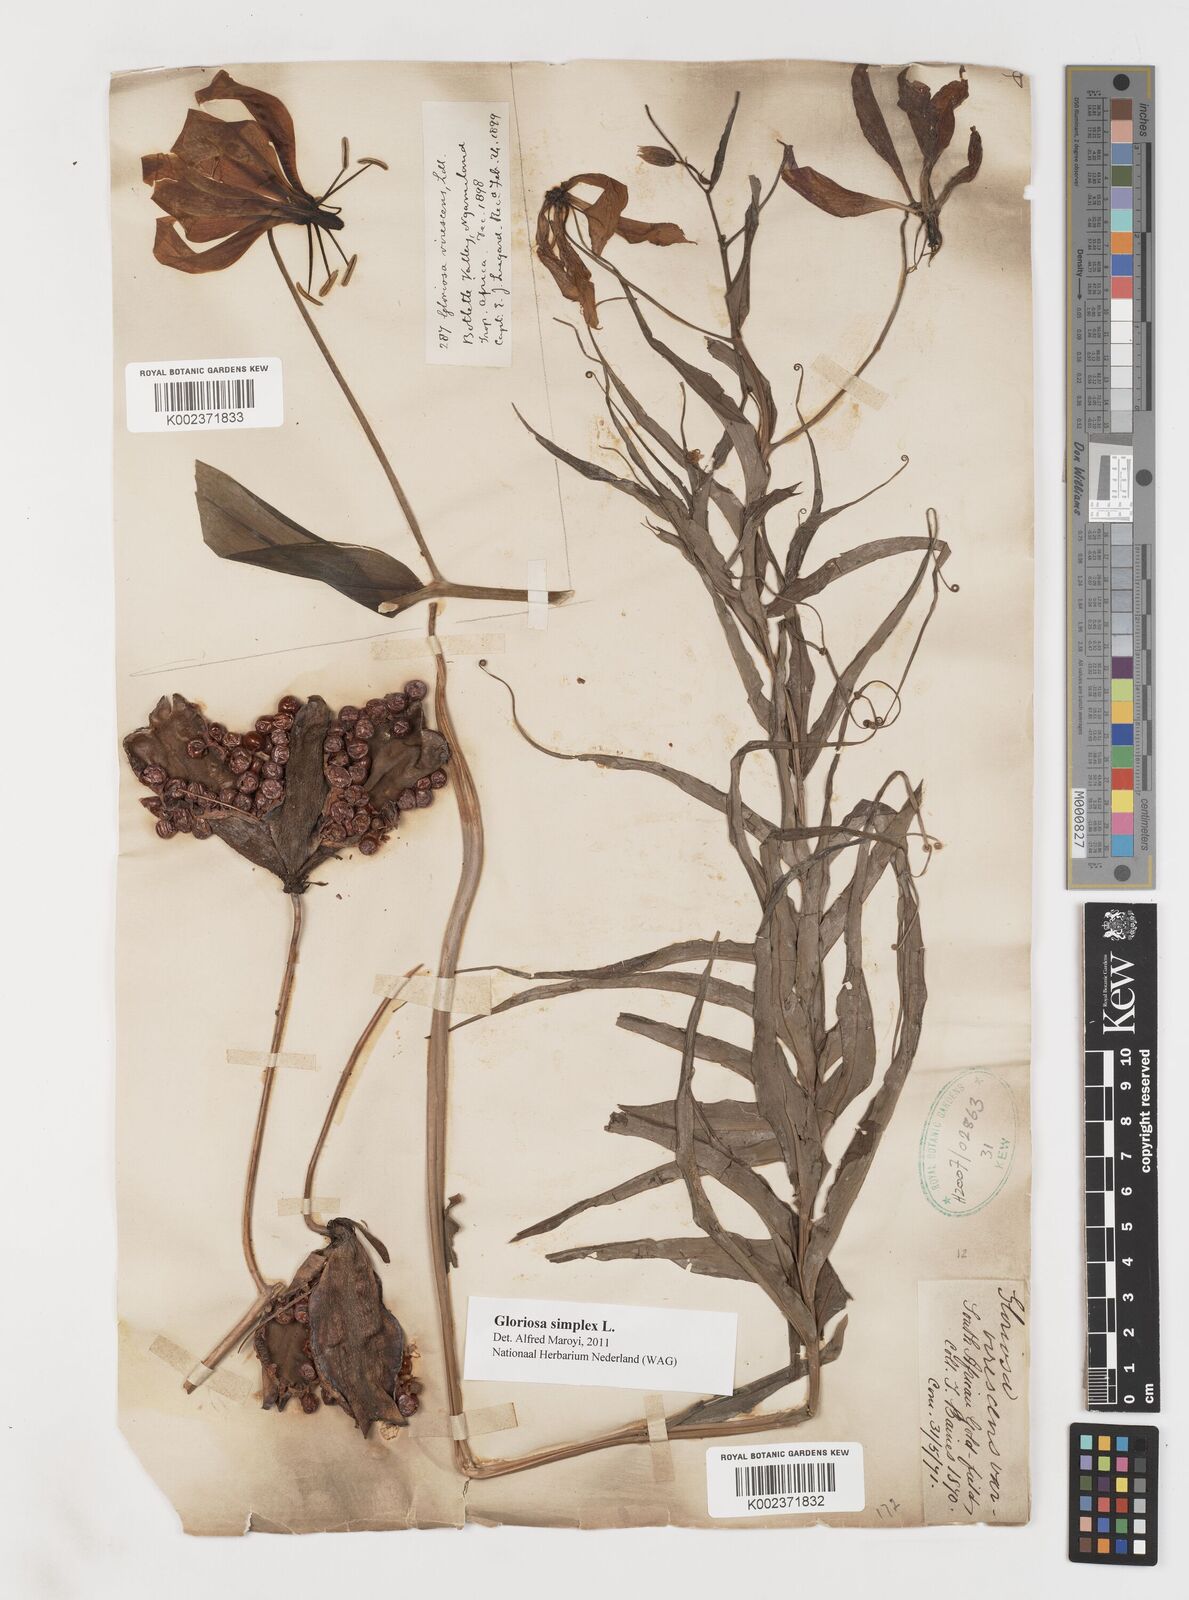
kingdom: Plantae
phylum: Tracheophyta
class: Liliopsida
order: Liliales
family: Colchicaceae
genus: Gloriosa
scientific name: Gloriosa simplex
